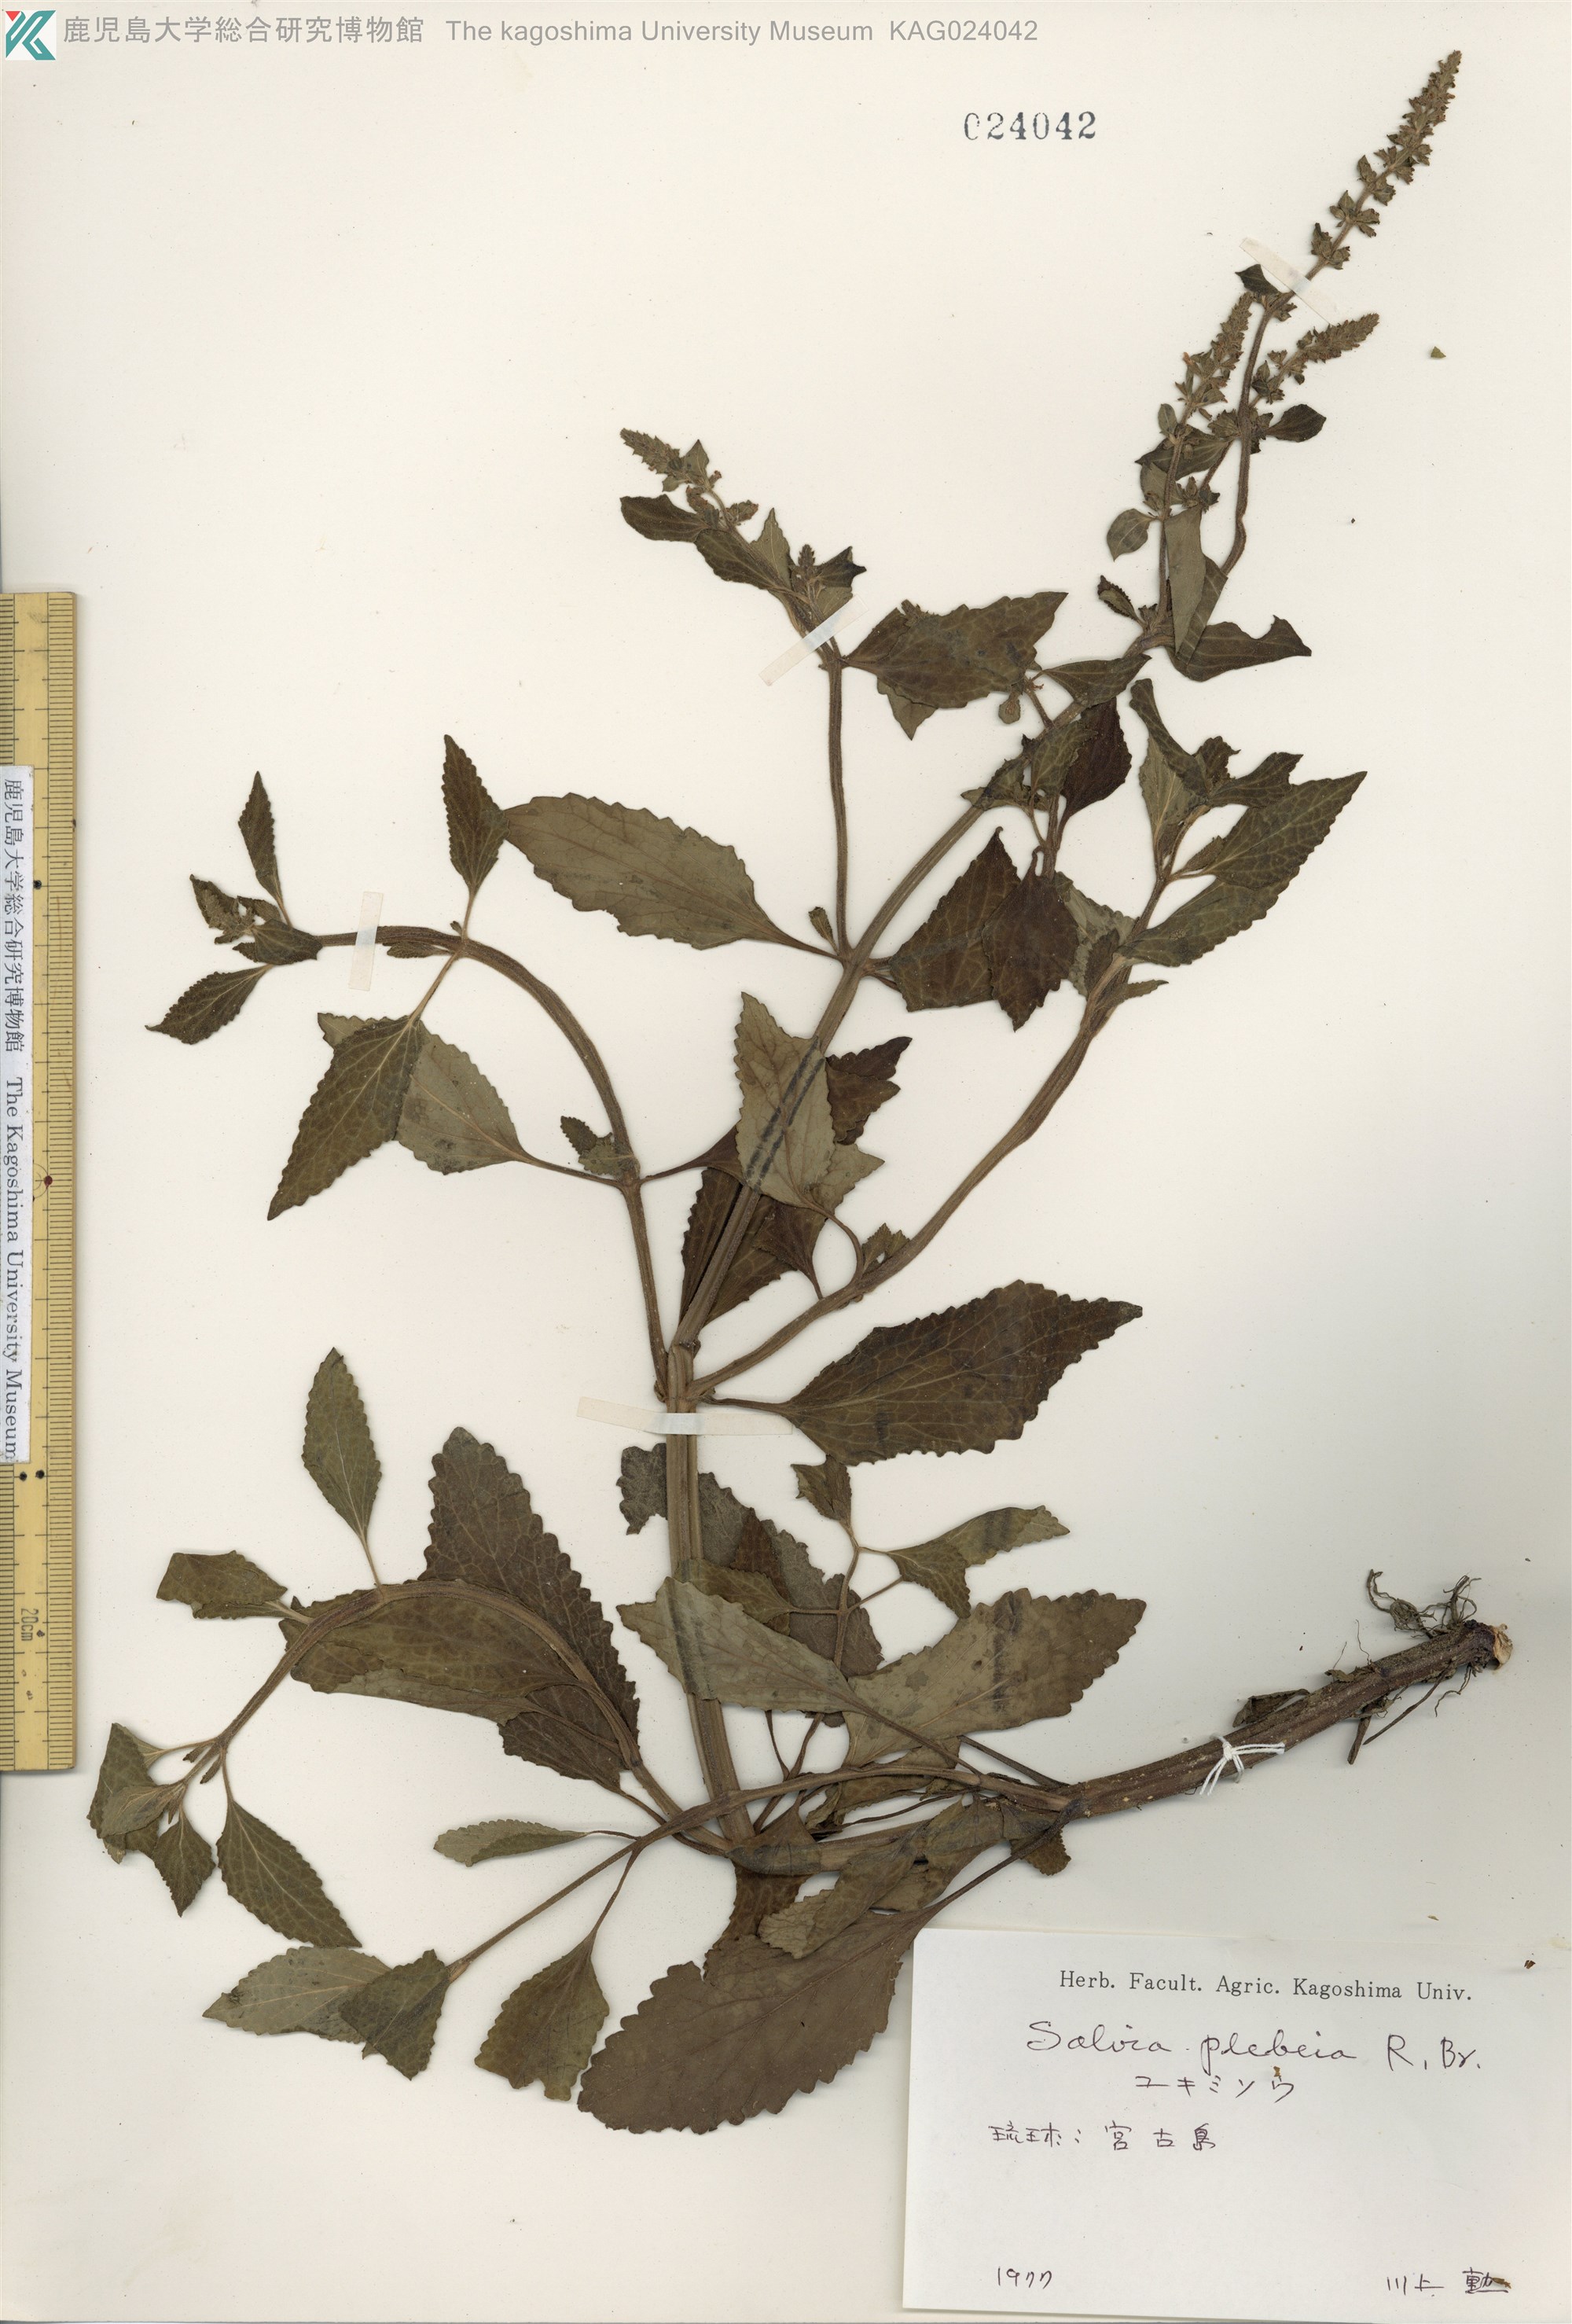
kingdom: Plantae
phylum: Tracheophyta
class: Magnoliopsida
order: Lamiales
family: Lamiaceae
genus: Salvia
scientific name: Salvia plebeia
